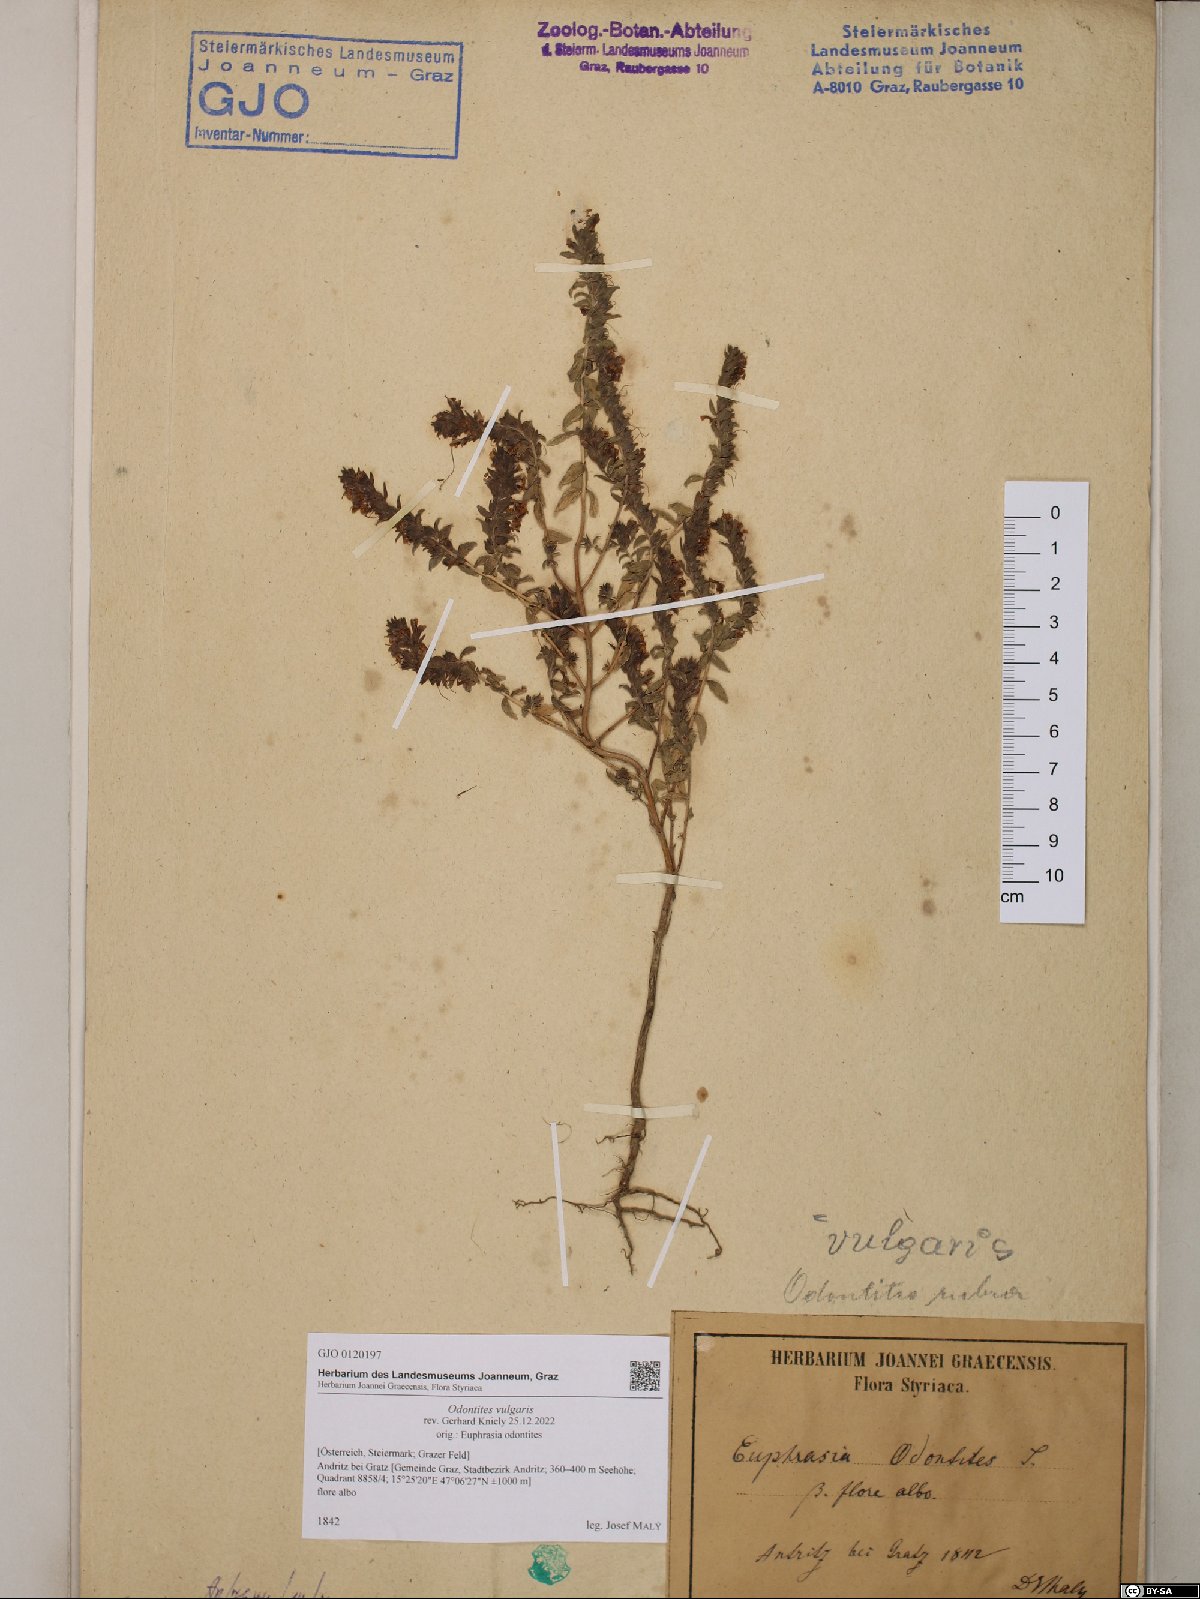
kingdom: Plantae
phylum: Tracheophyta
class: Magnoliopsida
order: Lamiales
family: Orobanchaceae
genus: Odontites
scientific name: Odontites vulgaris
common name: Broomrape
